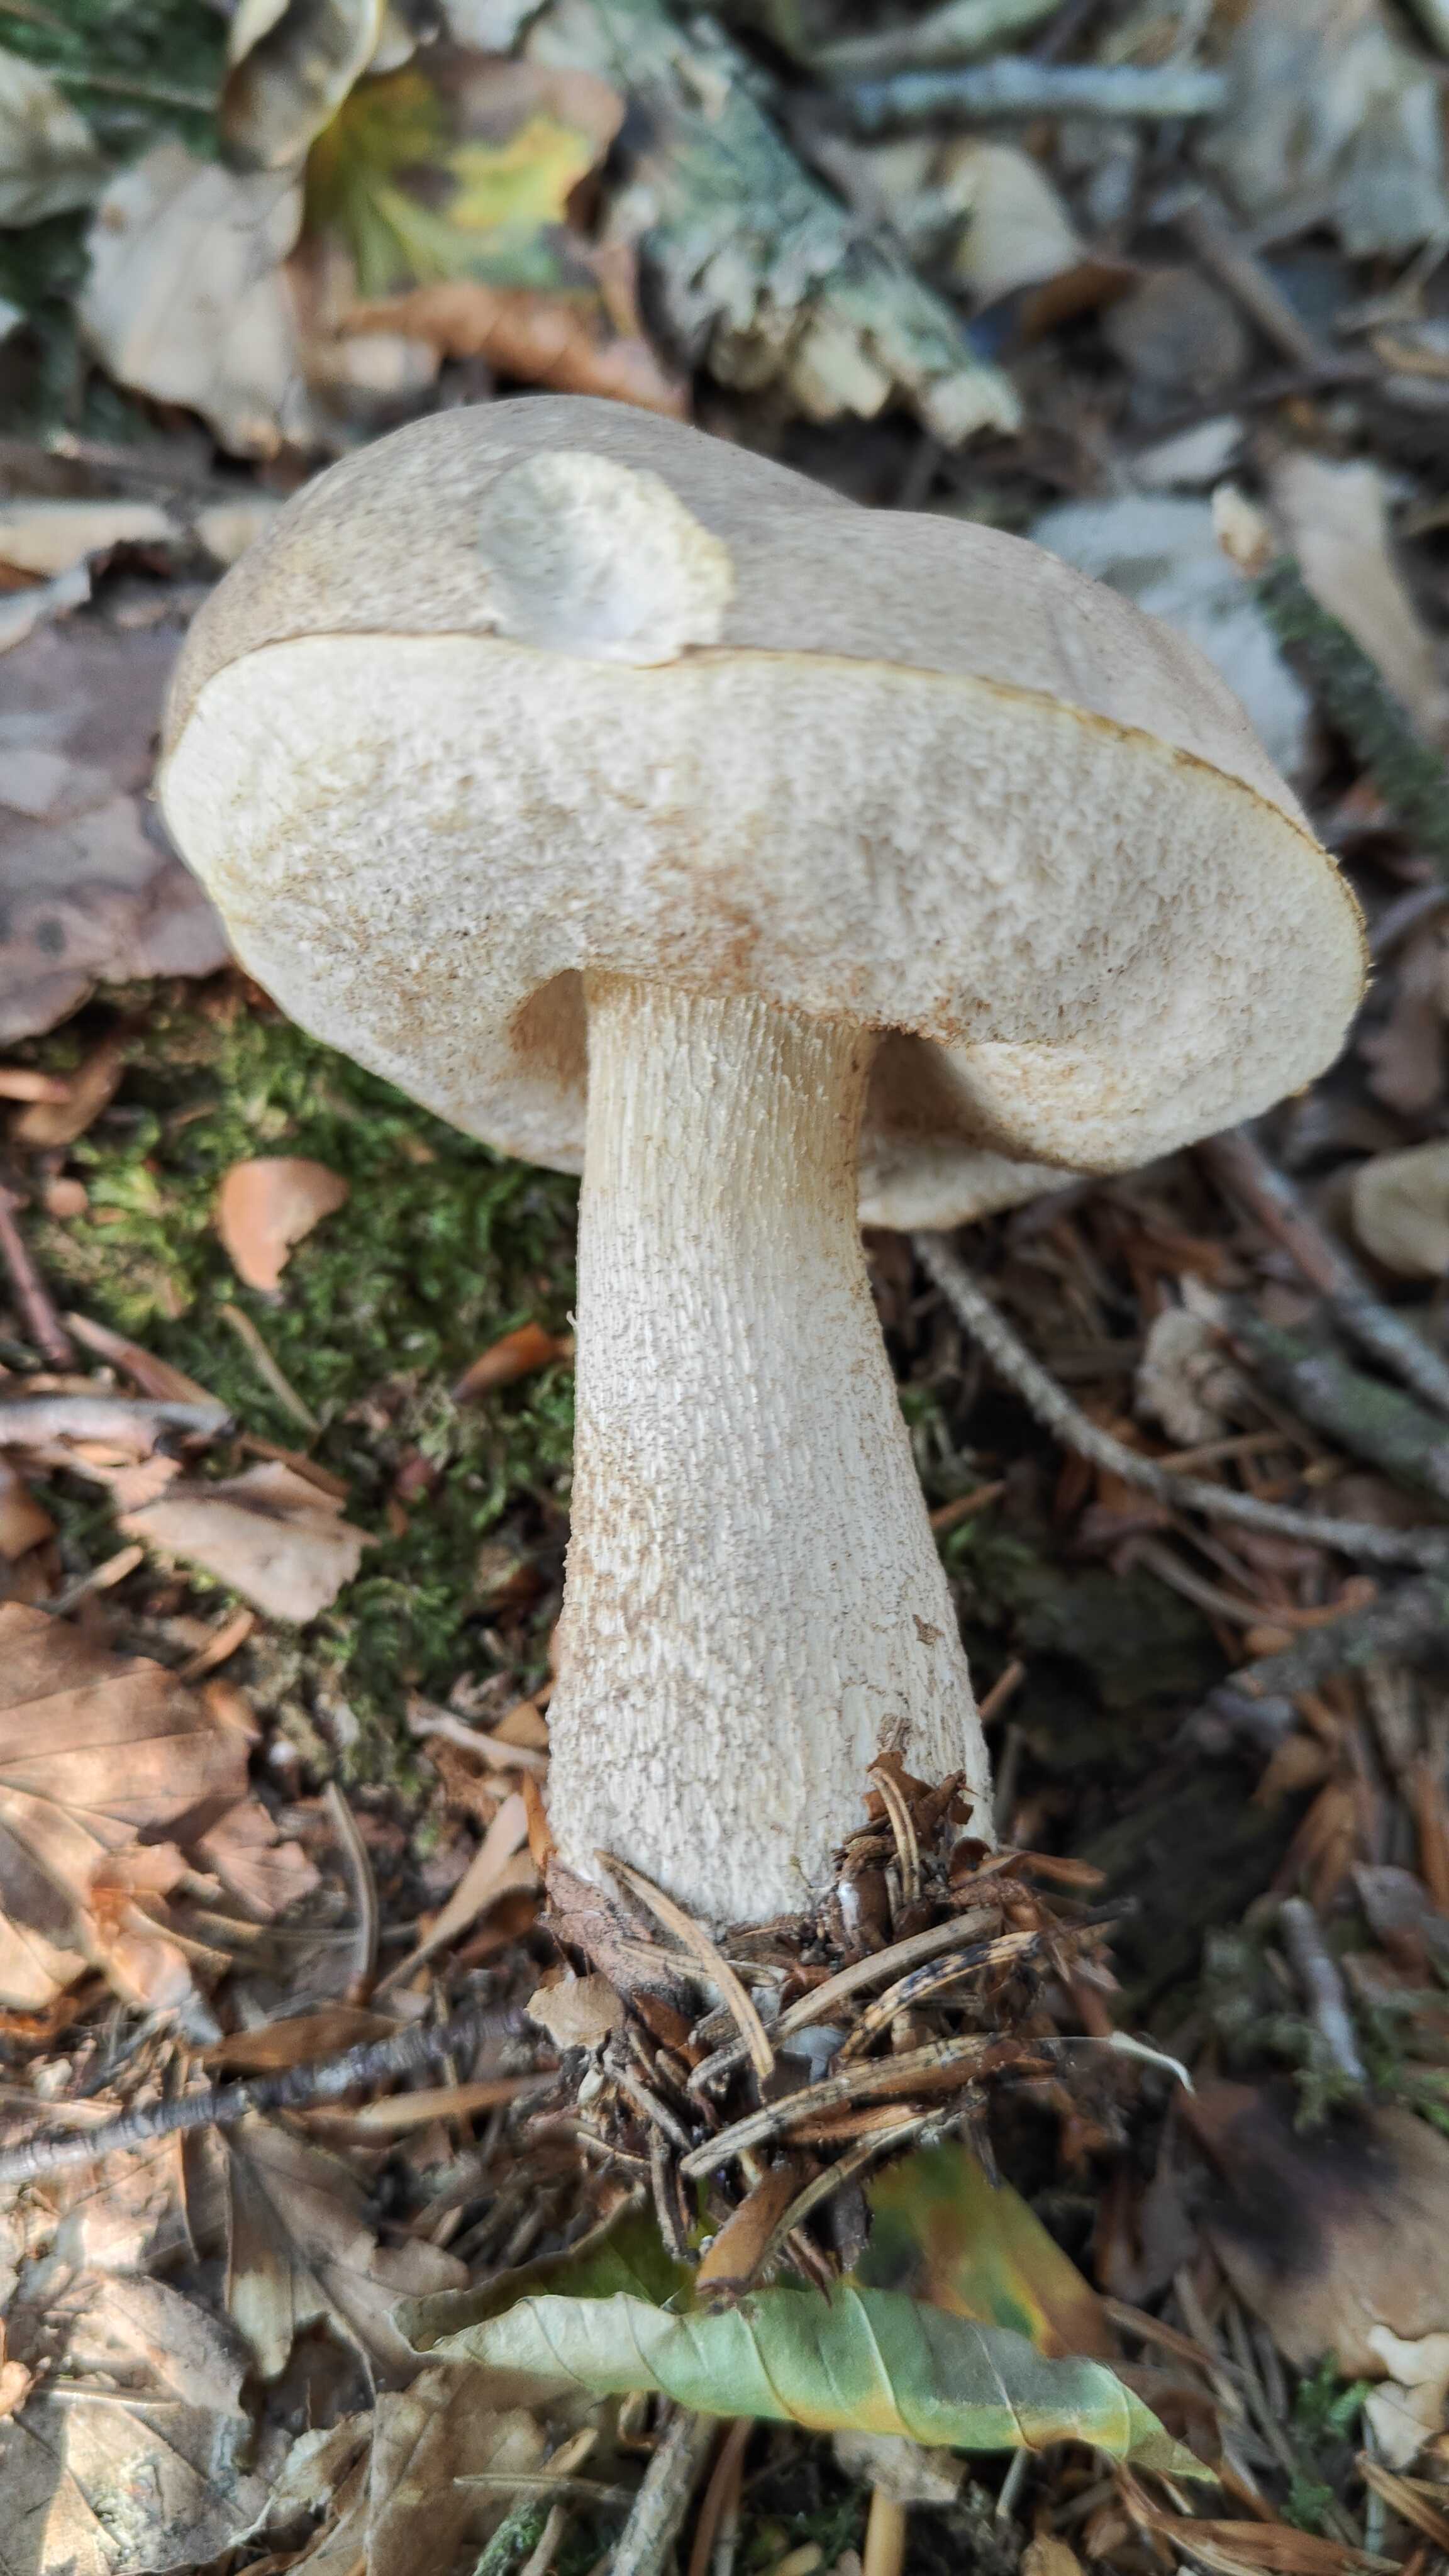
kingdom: Fungi
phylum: Basidiomycota
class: Agaricomycetes
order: Boletales
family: Boletaceae
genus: Leccinum
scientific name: Leccinum scabrum
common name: brun skælrørhat
